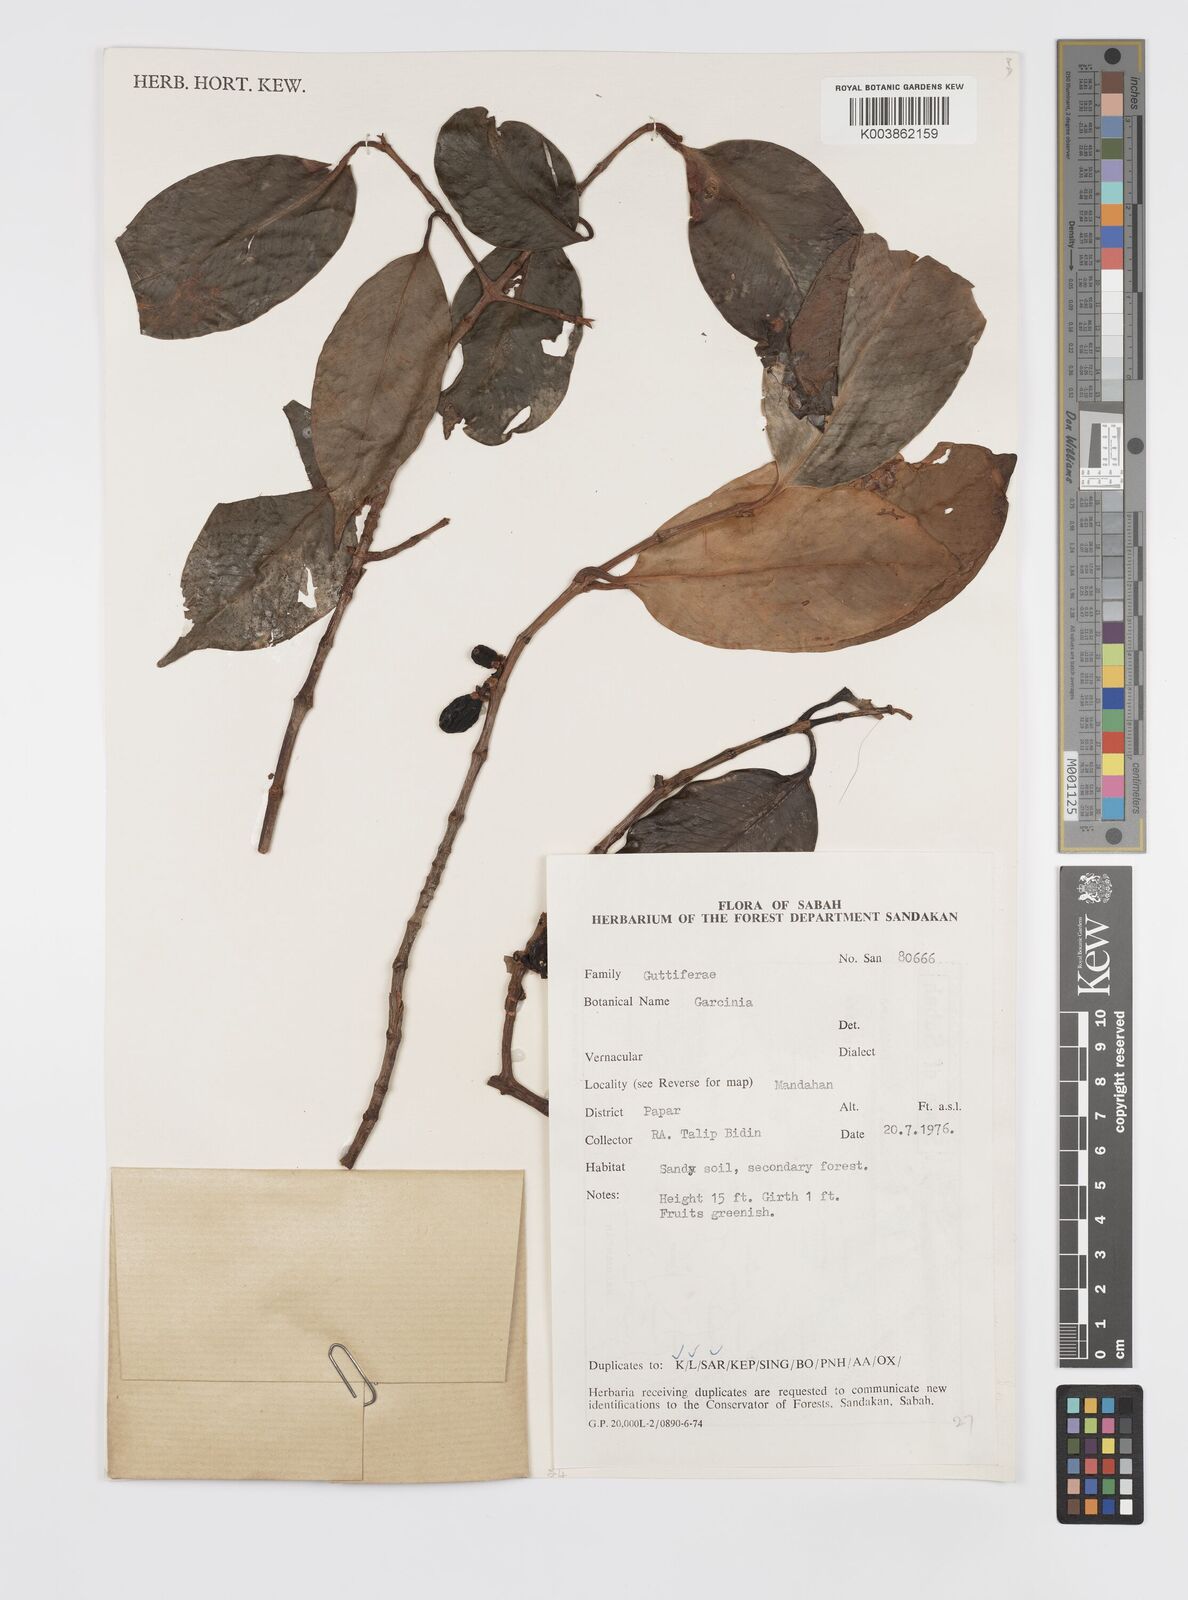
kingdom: Plantae
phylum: Tracheophyta
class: Magnoliopsida
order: Malpighiales
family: Clusiaceae
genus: Garcinia
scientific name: Garcinia
